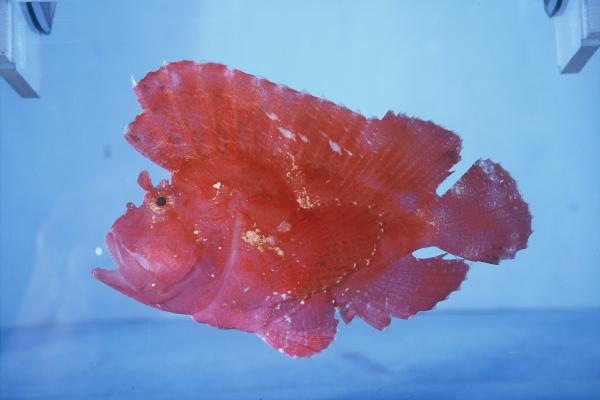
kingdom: Animalia
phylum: Chordata
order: Scorpaeniformes
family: Scorpaenidae
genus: Taenianotus
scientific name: Taenianotus triacanthus
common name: Leaf scorpionfish
